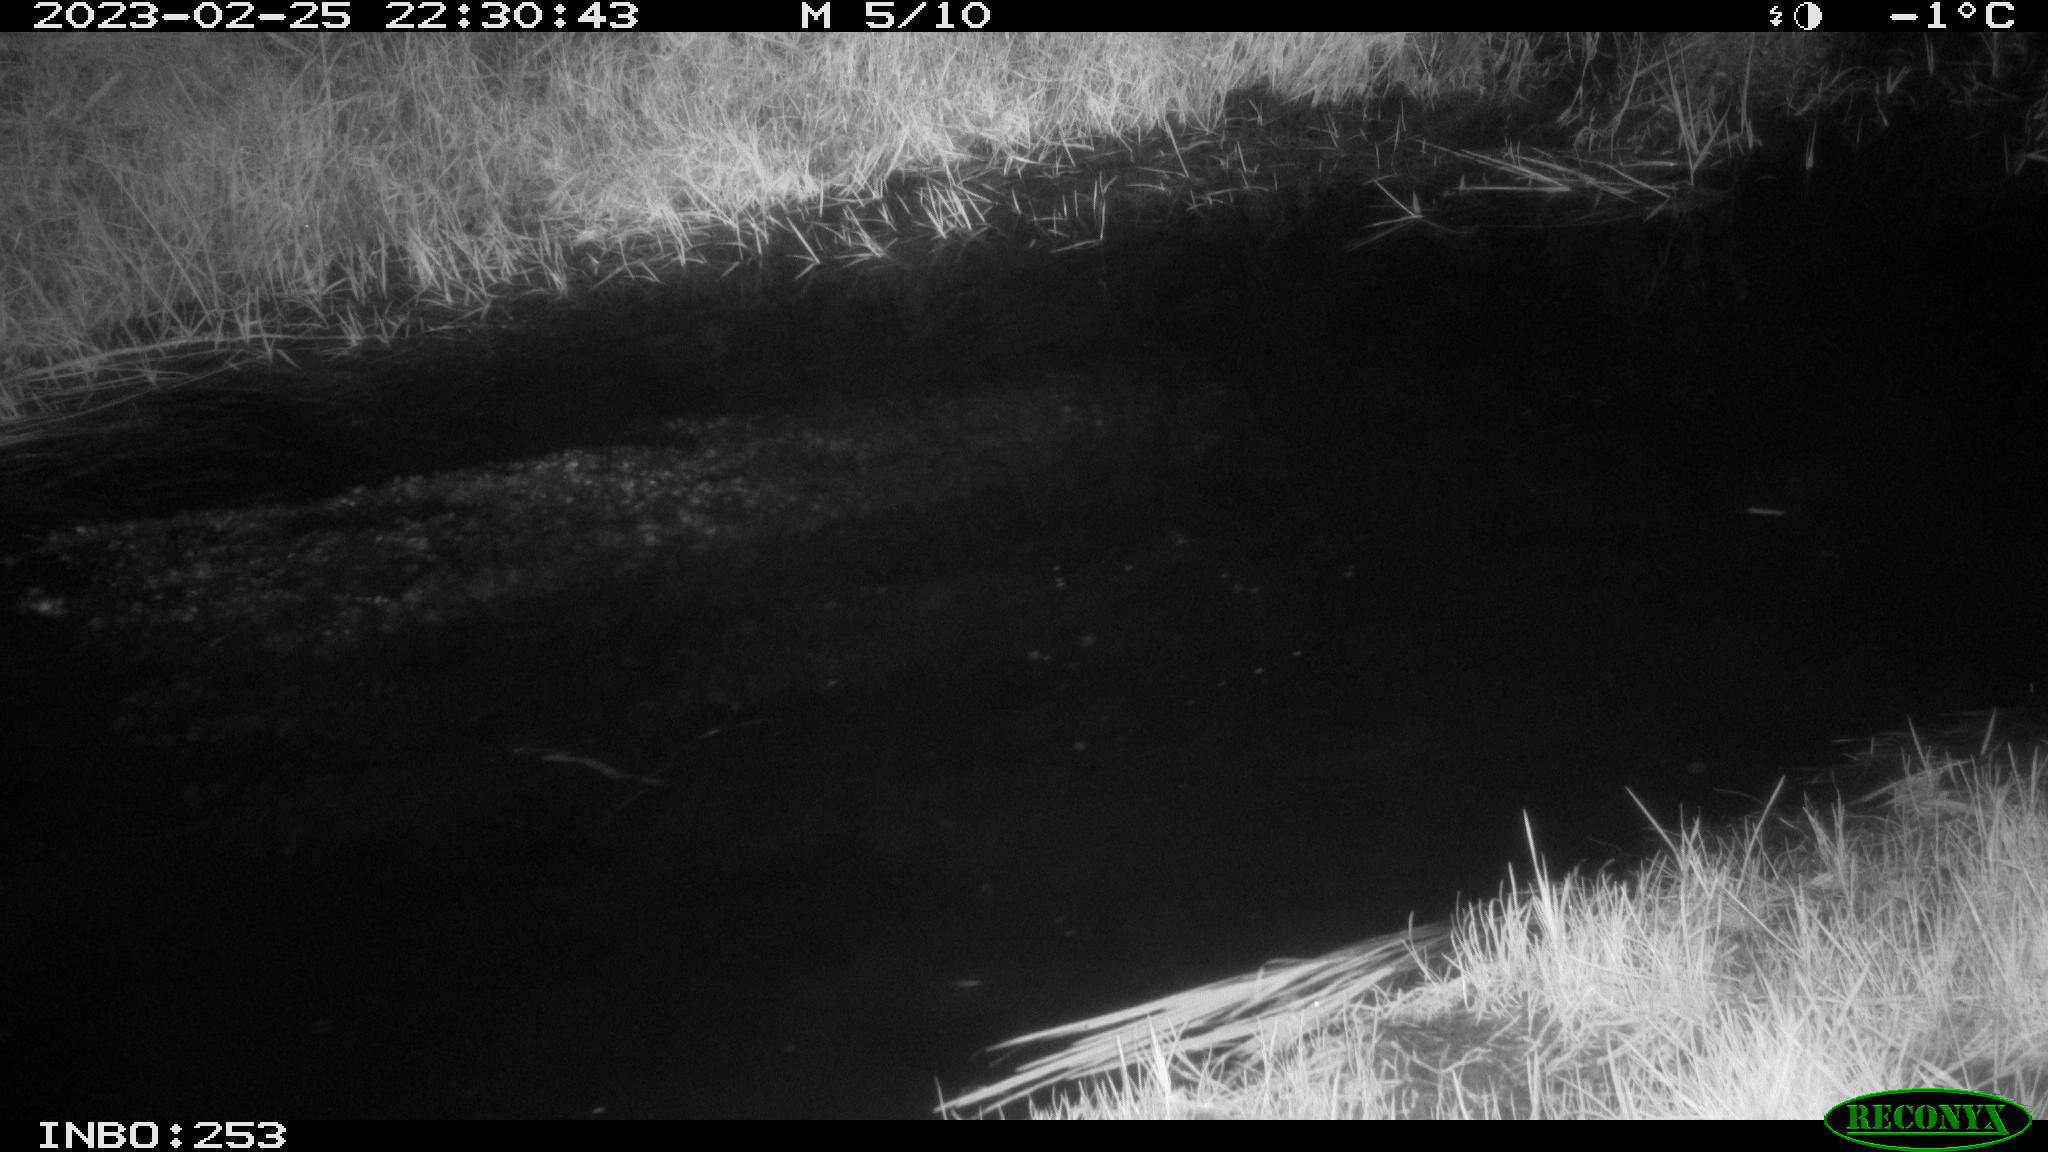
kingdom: Animalia
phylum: Chordata
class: Aves
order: Anseriformes
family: Anatidae
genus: Anas
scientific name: Anas
